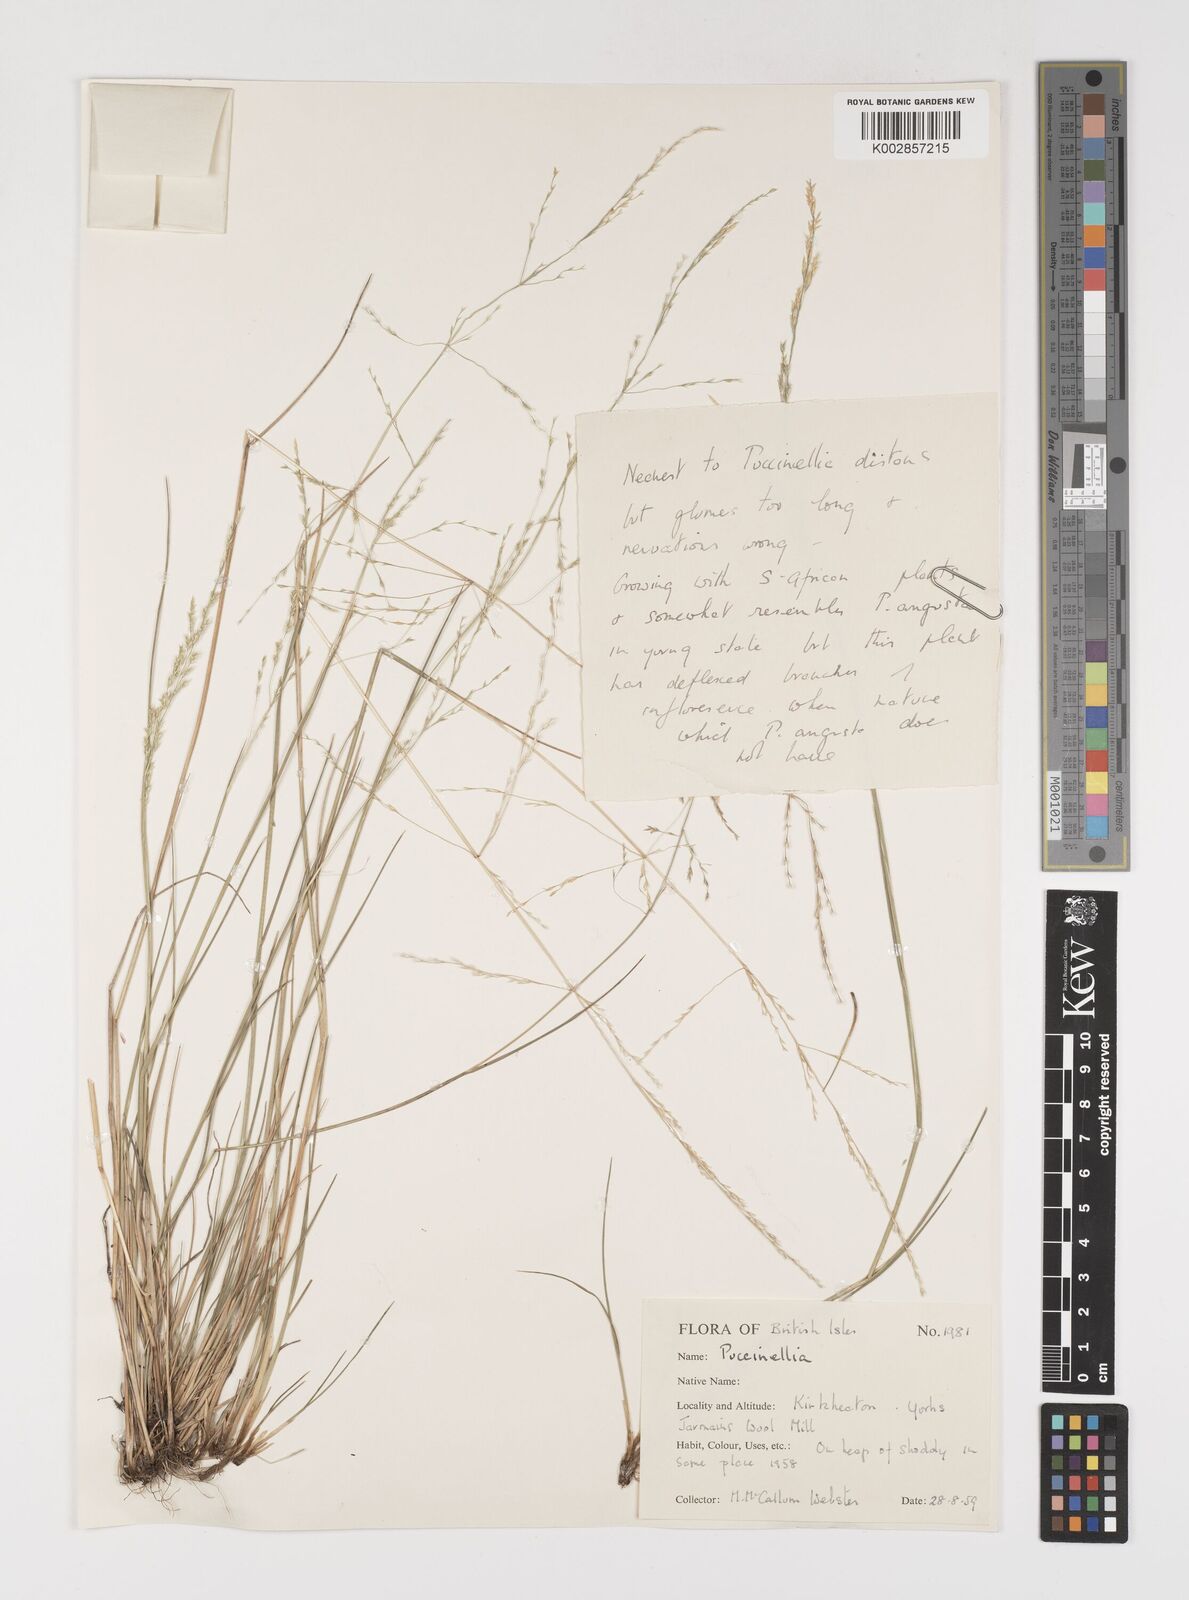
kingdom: Plantae
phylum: Tracheophyta
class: Liliopsida
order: Poales
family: Poaceae
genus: Puccinellia
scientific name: Puccinellia
